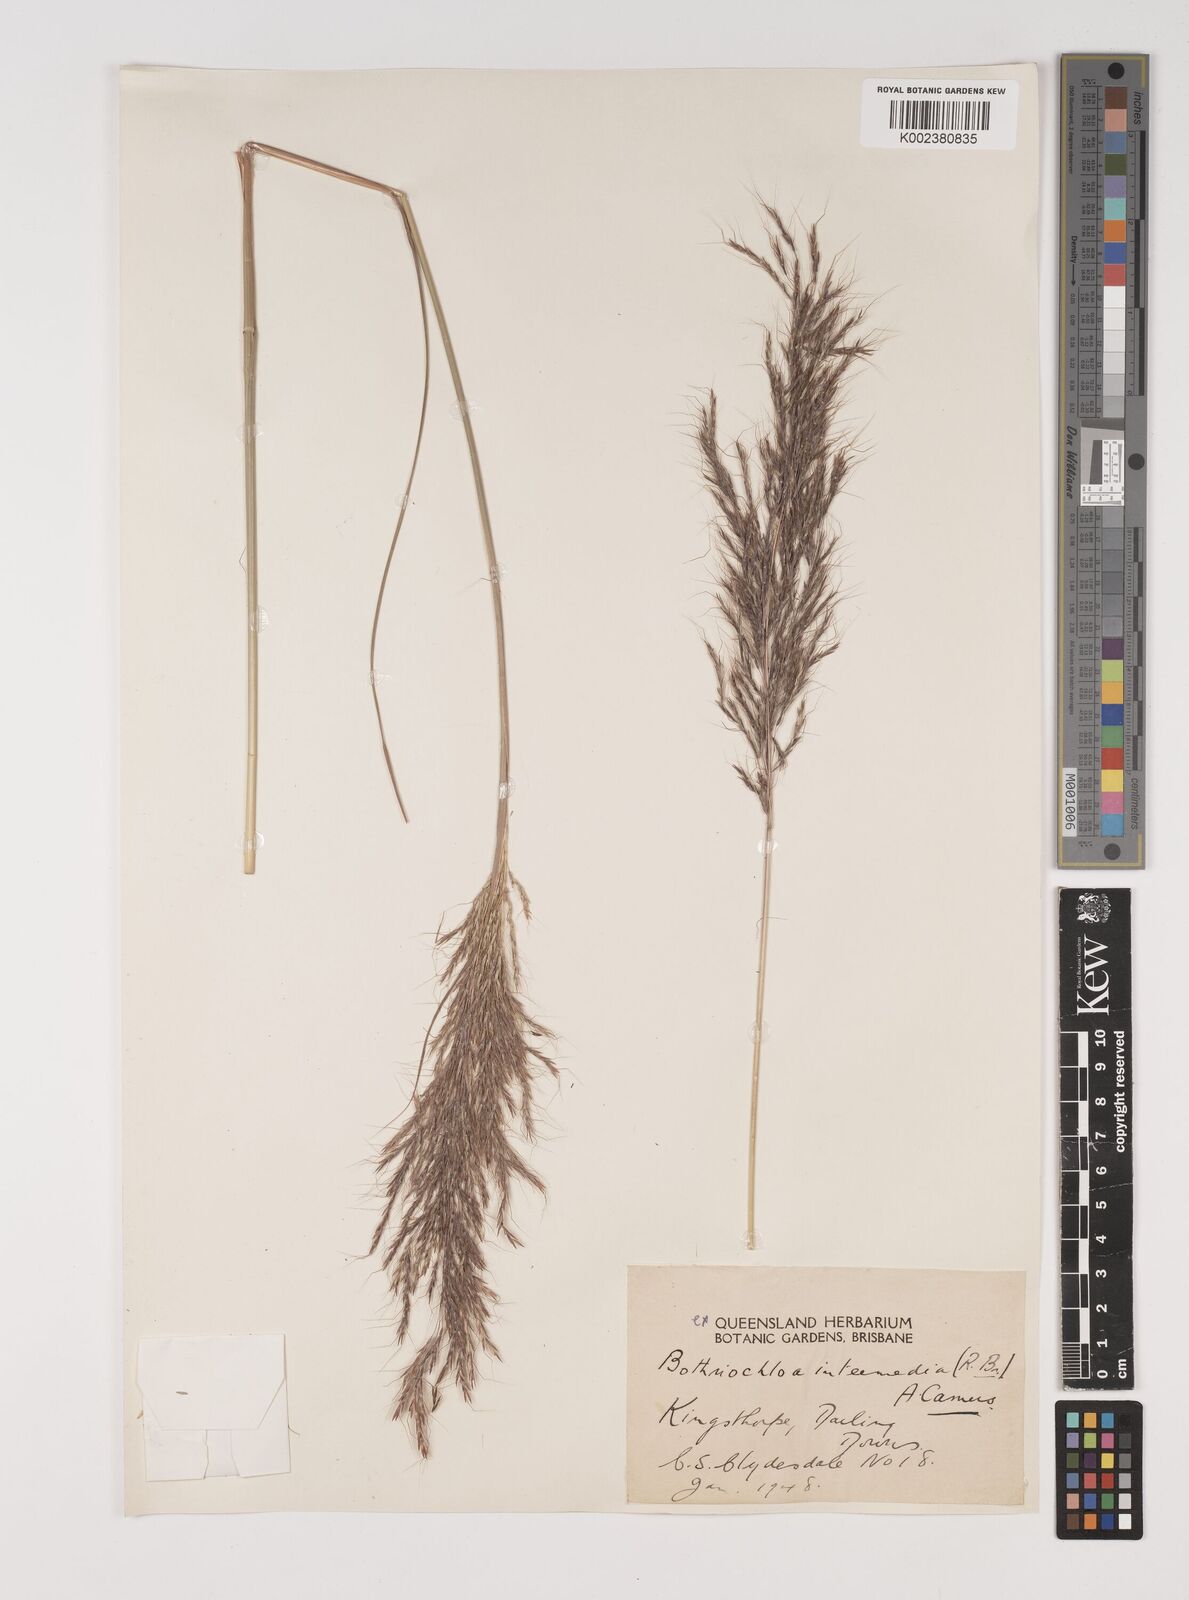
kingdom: Plantae
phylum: Tracheophyta
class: Liliopsida
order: Poales
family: Poaceae
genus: Bothriochloa
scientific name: Bothriochloa bladhii
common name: Caucasian bluestem
